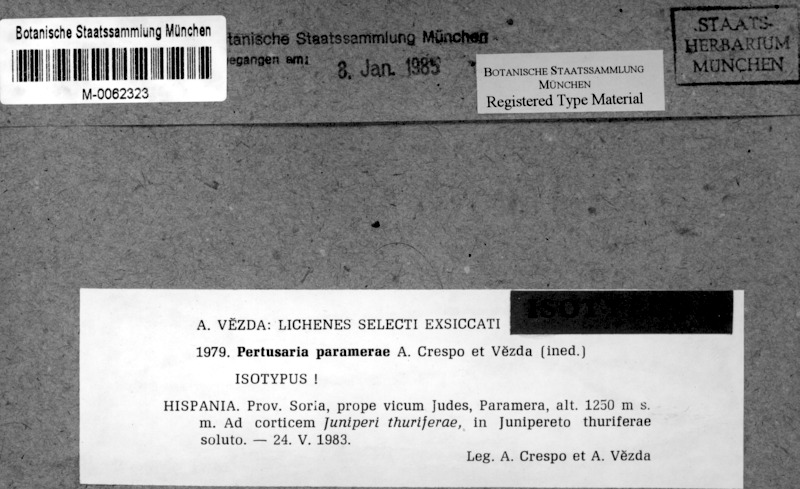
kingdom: Fungi
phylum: Ascomycota
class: Lecanoromycetes
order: Pertusariales
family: Pertusariaceae
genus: Pertusaria
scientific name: Pertusaria paramerae
